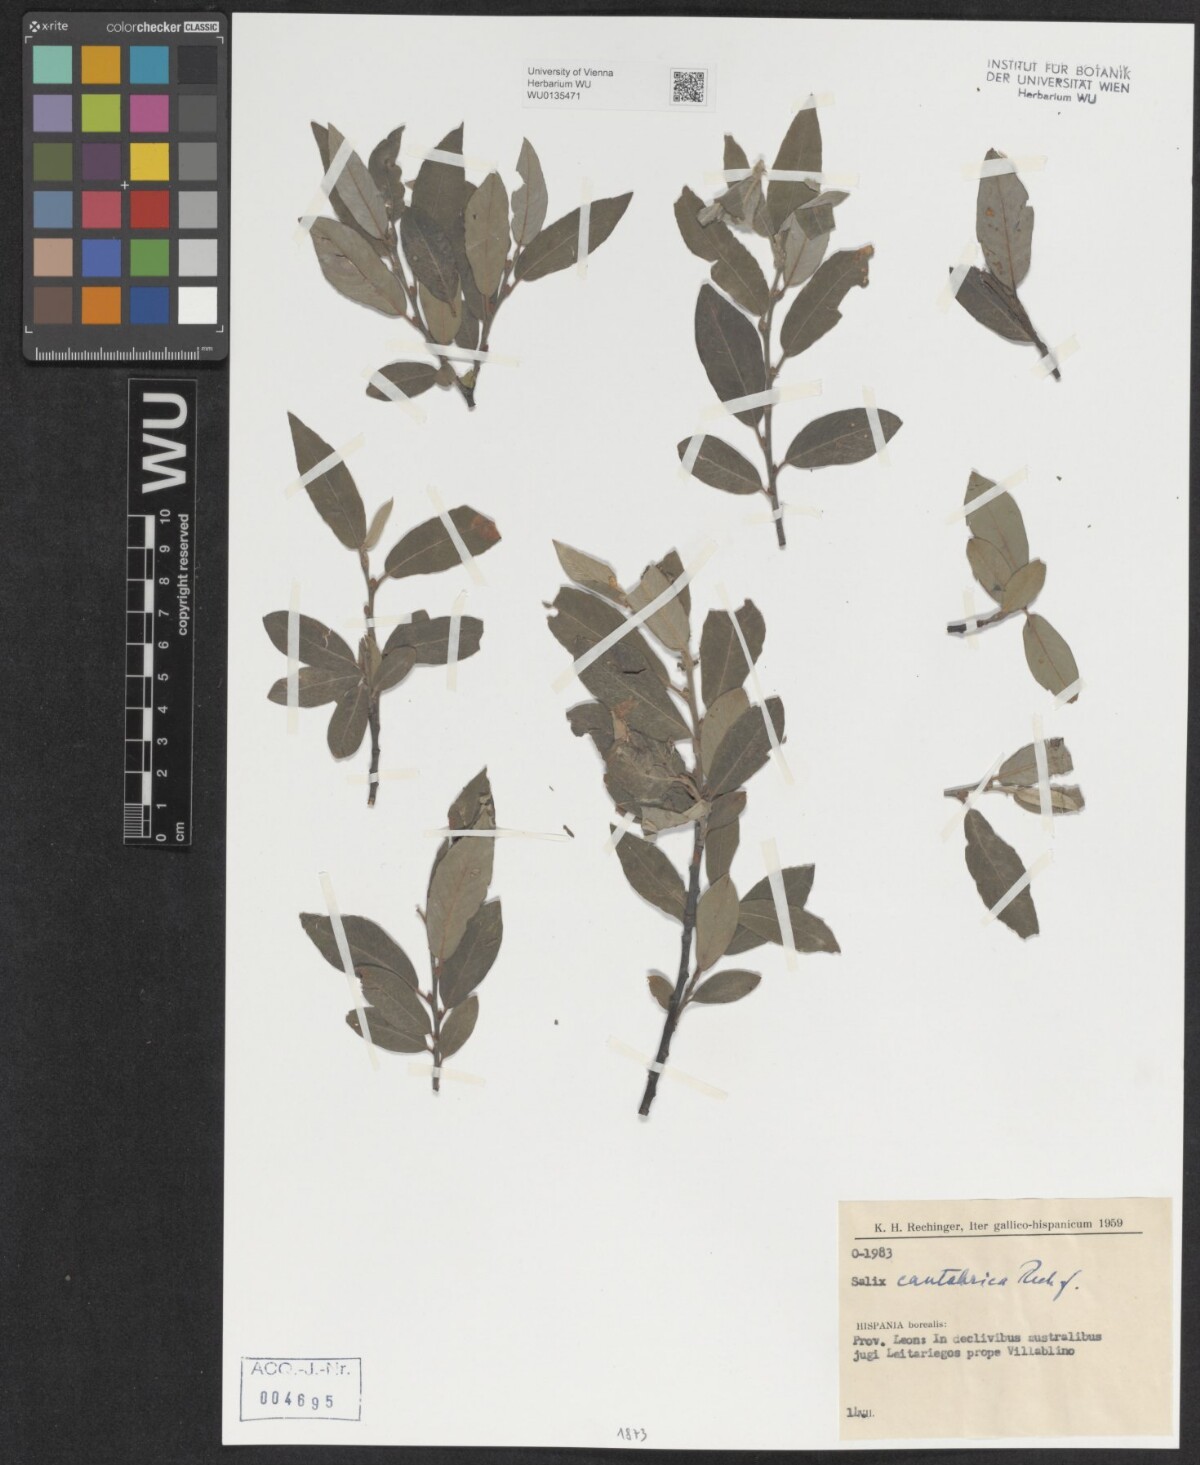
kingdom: Plantae
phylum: Tracheophyta
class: Magnoliopsida
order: Malpighiales
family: Salicaceae
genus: Salix
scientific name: Salix cantabrica
